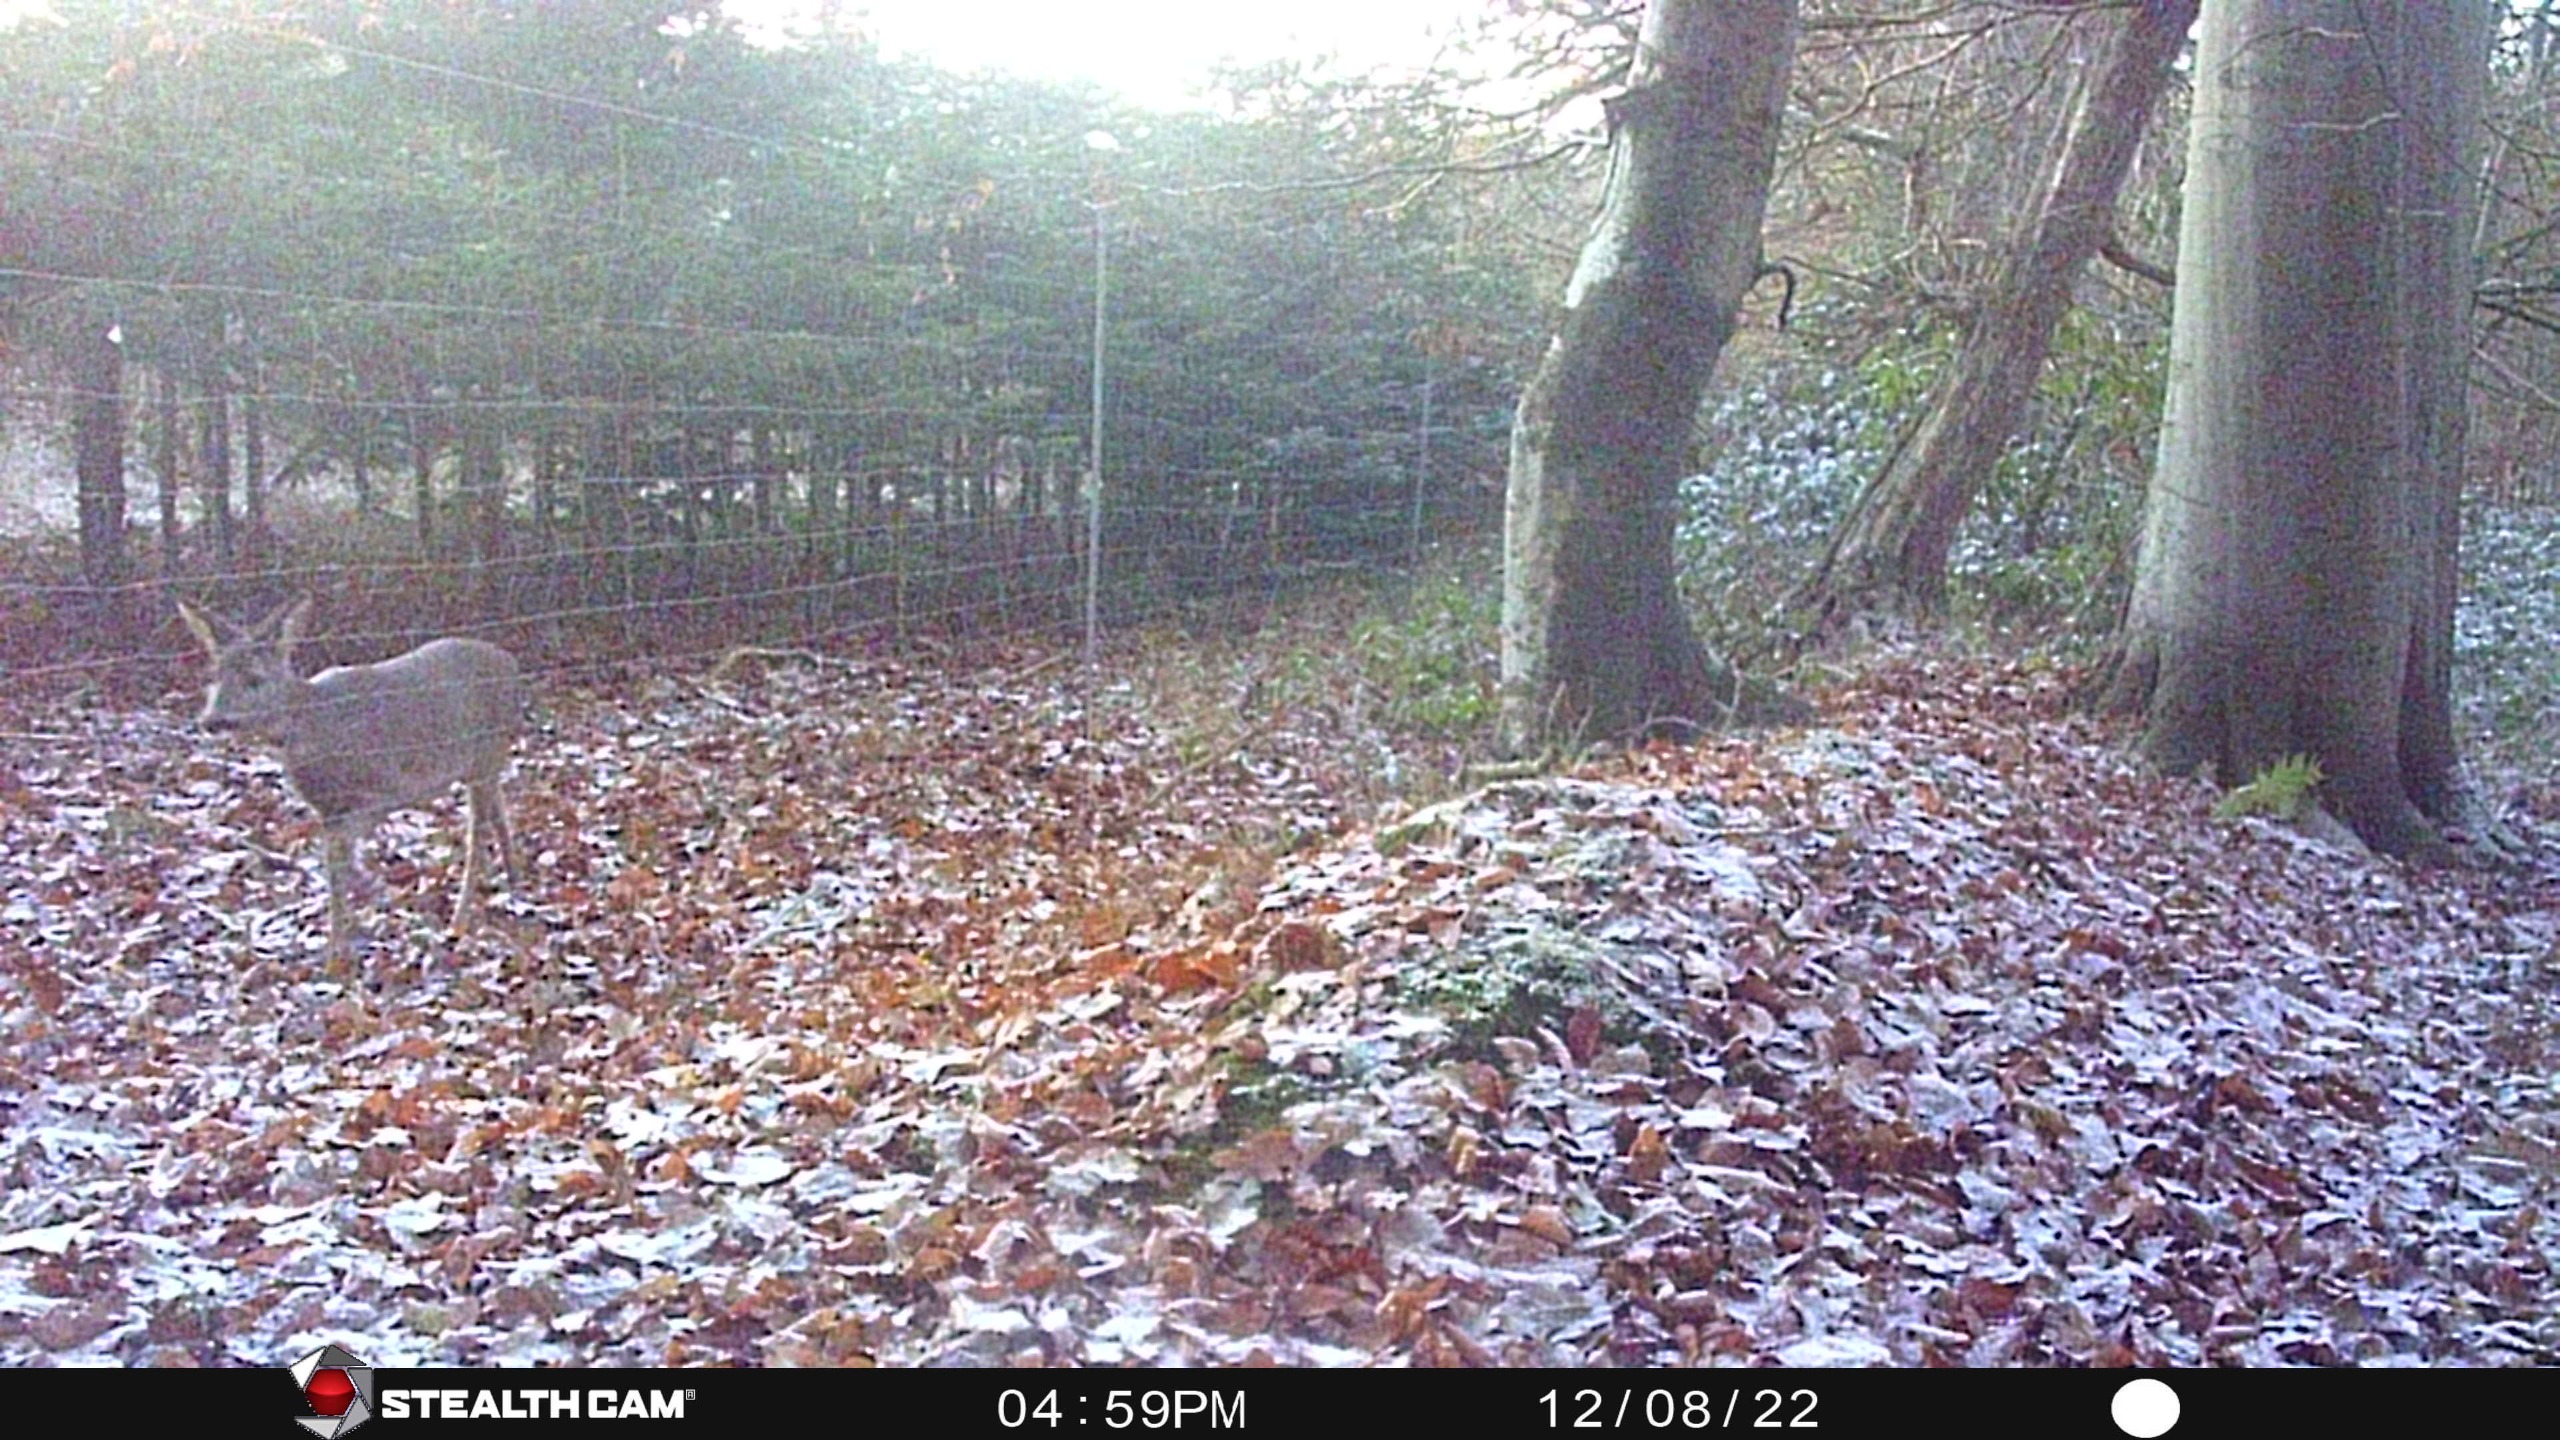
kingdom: Animalia
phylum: Chordata
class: Mammalia
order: Artiodactyla
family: Cervidae
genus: Capreolus
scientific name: Capreolus capreolus
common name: Rådyr
